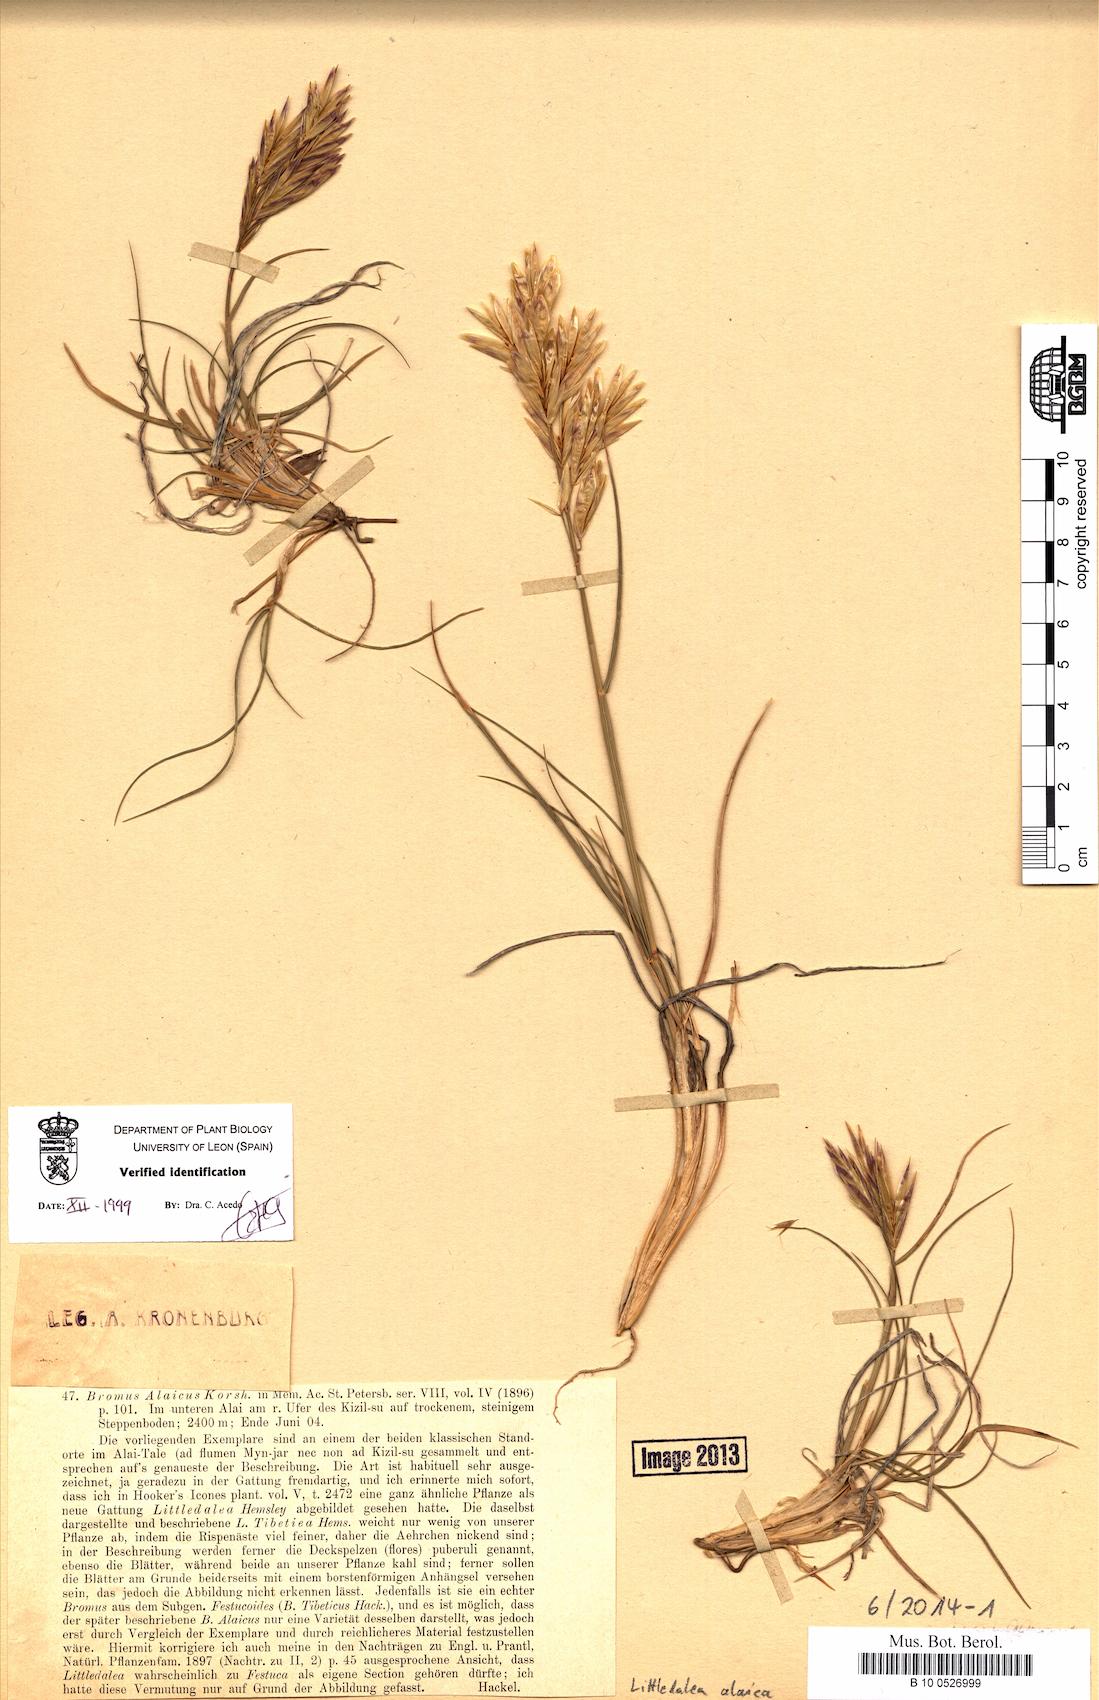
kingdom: Plantae
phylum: Tracheophyta
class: Liliopsida
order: Poales
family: Poaceae
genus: Littledalea
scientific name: Littledalea alaica
